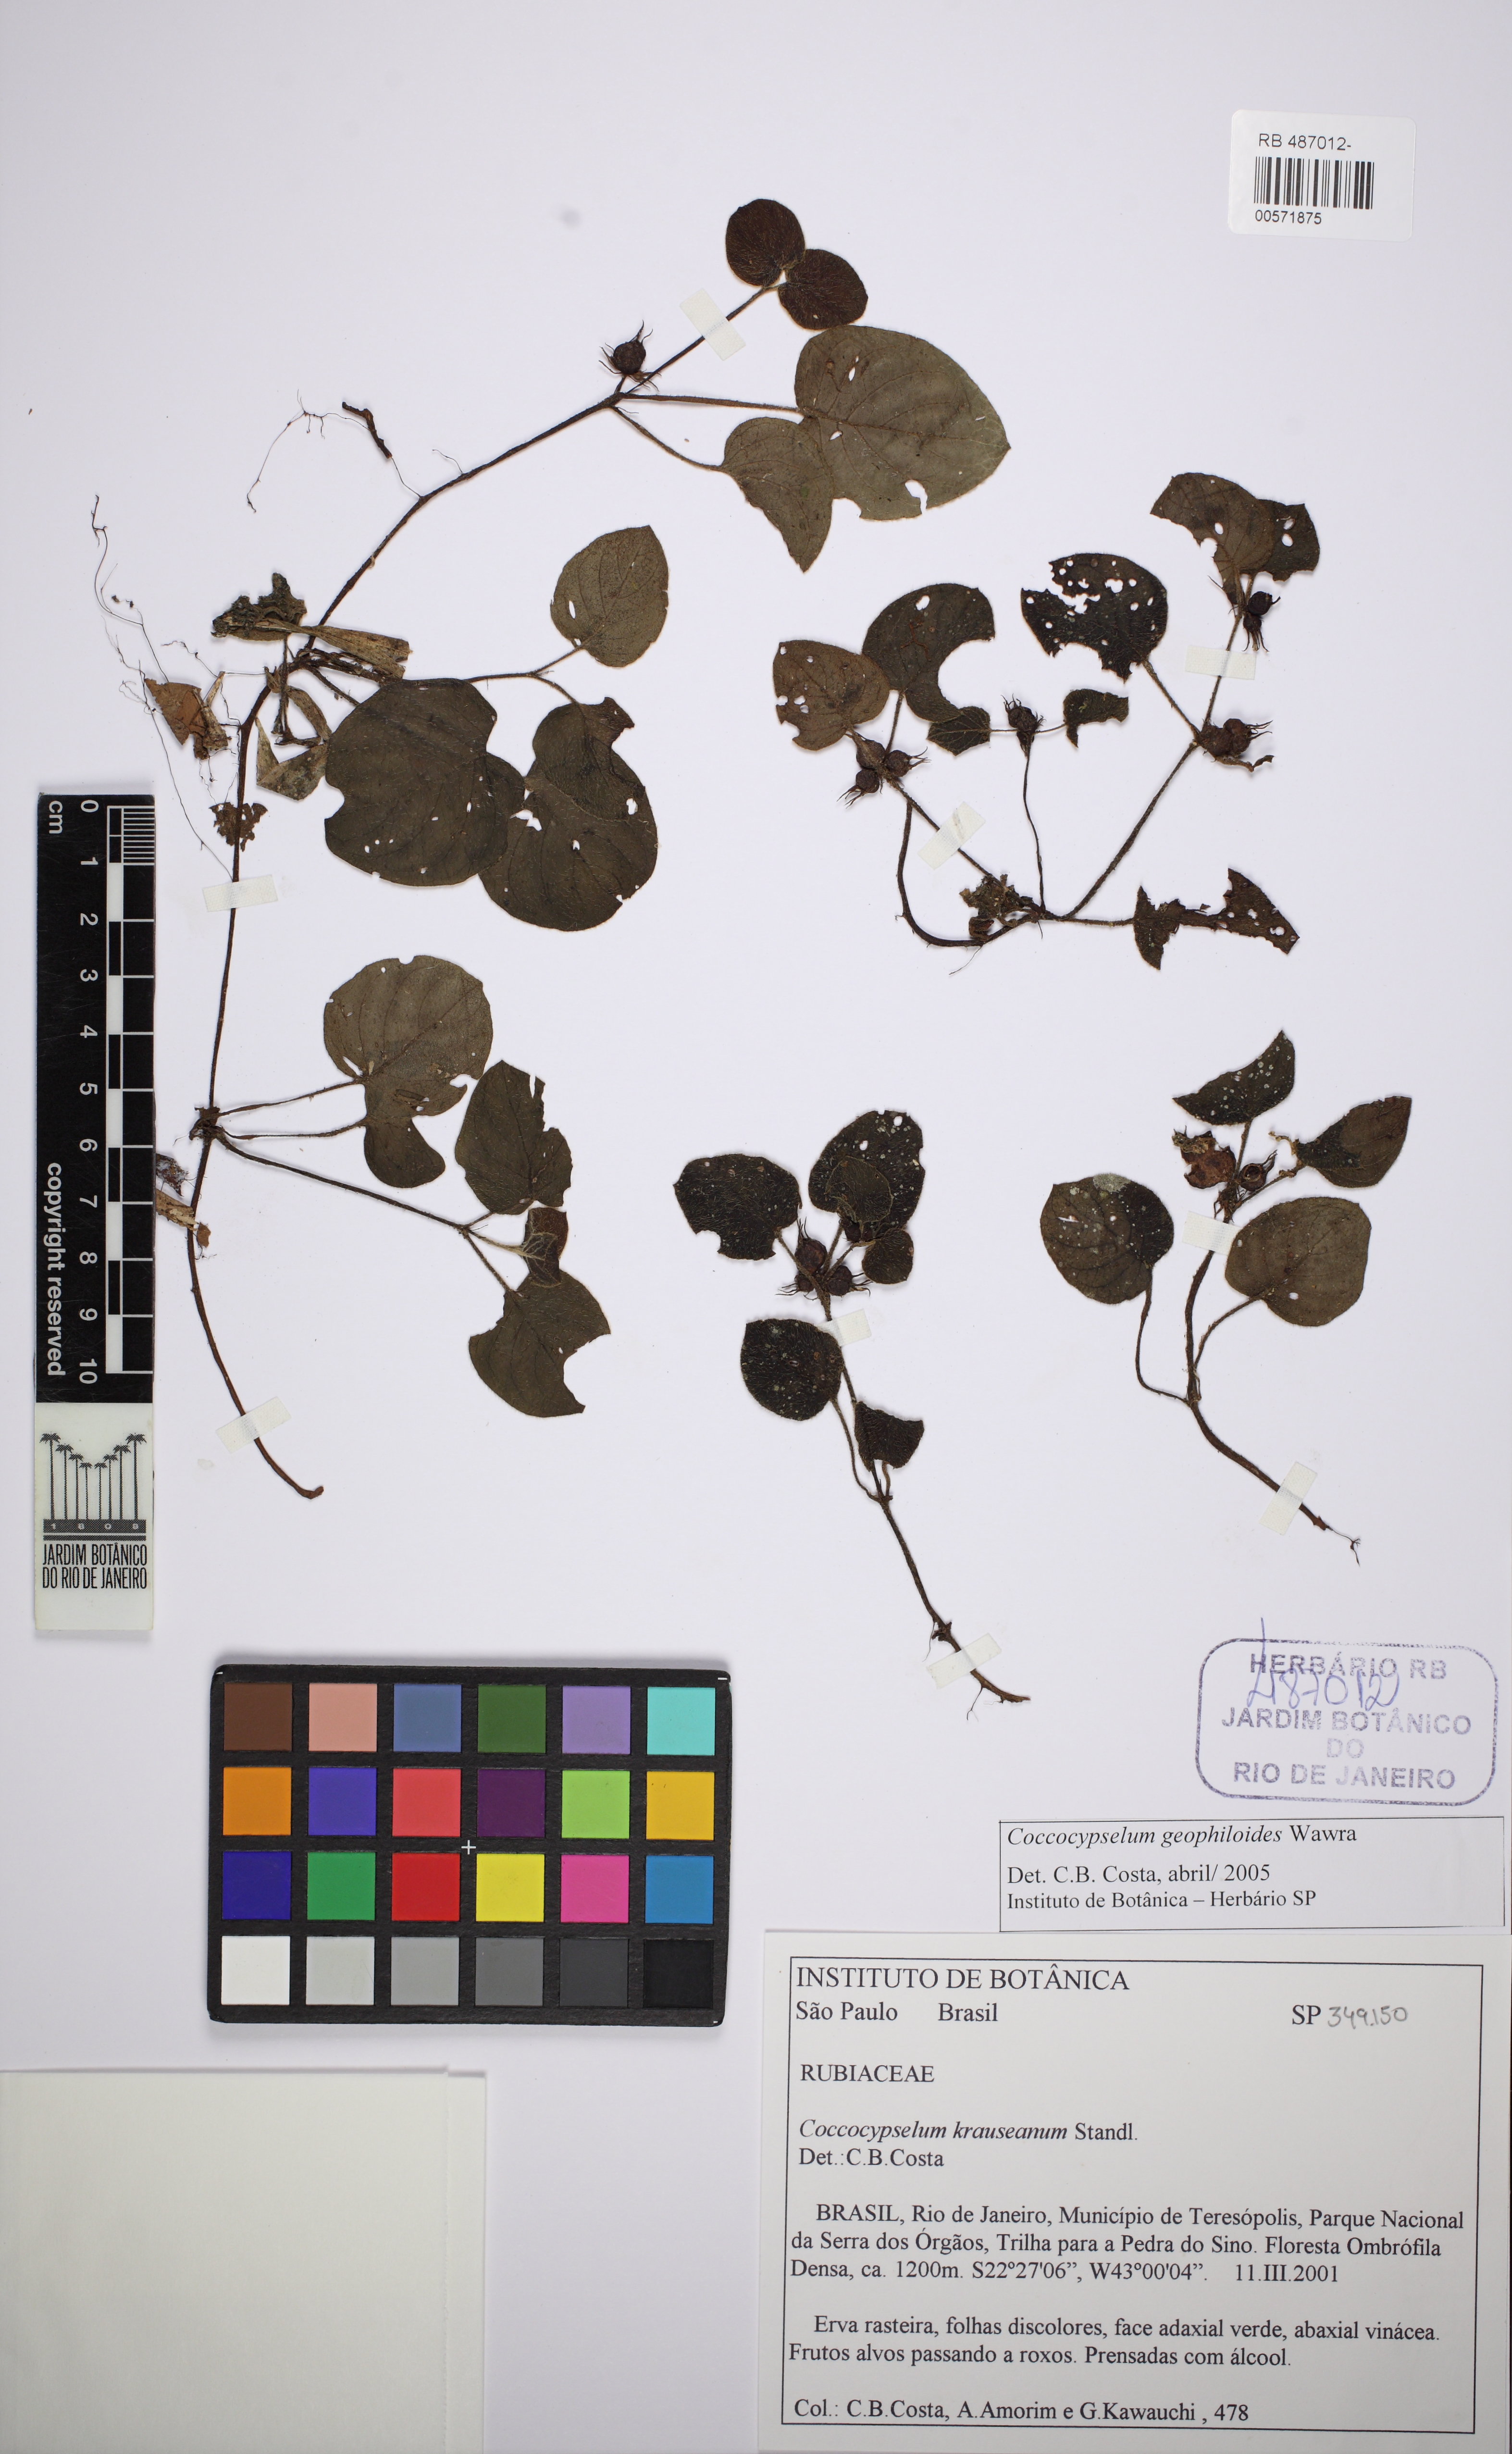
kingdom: Plantae
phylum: Tracheophyta
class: Magnoliopsida
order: Gentianales
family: Rubiaceae
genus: Coccocypselum
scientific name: Coccocypselum geophiloides
